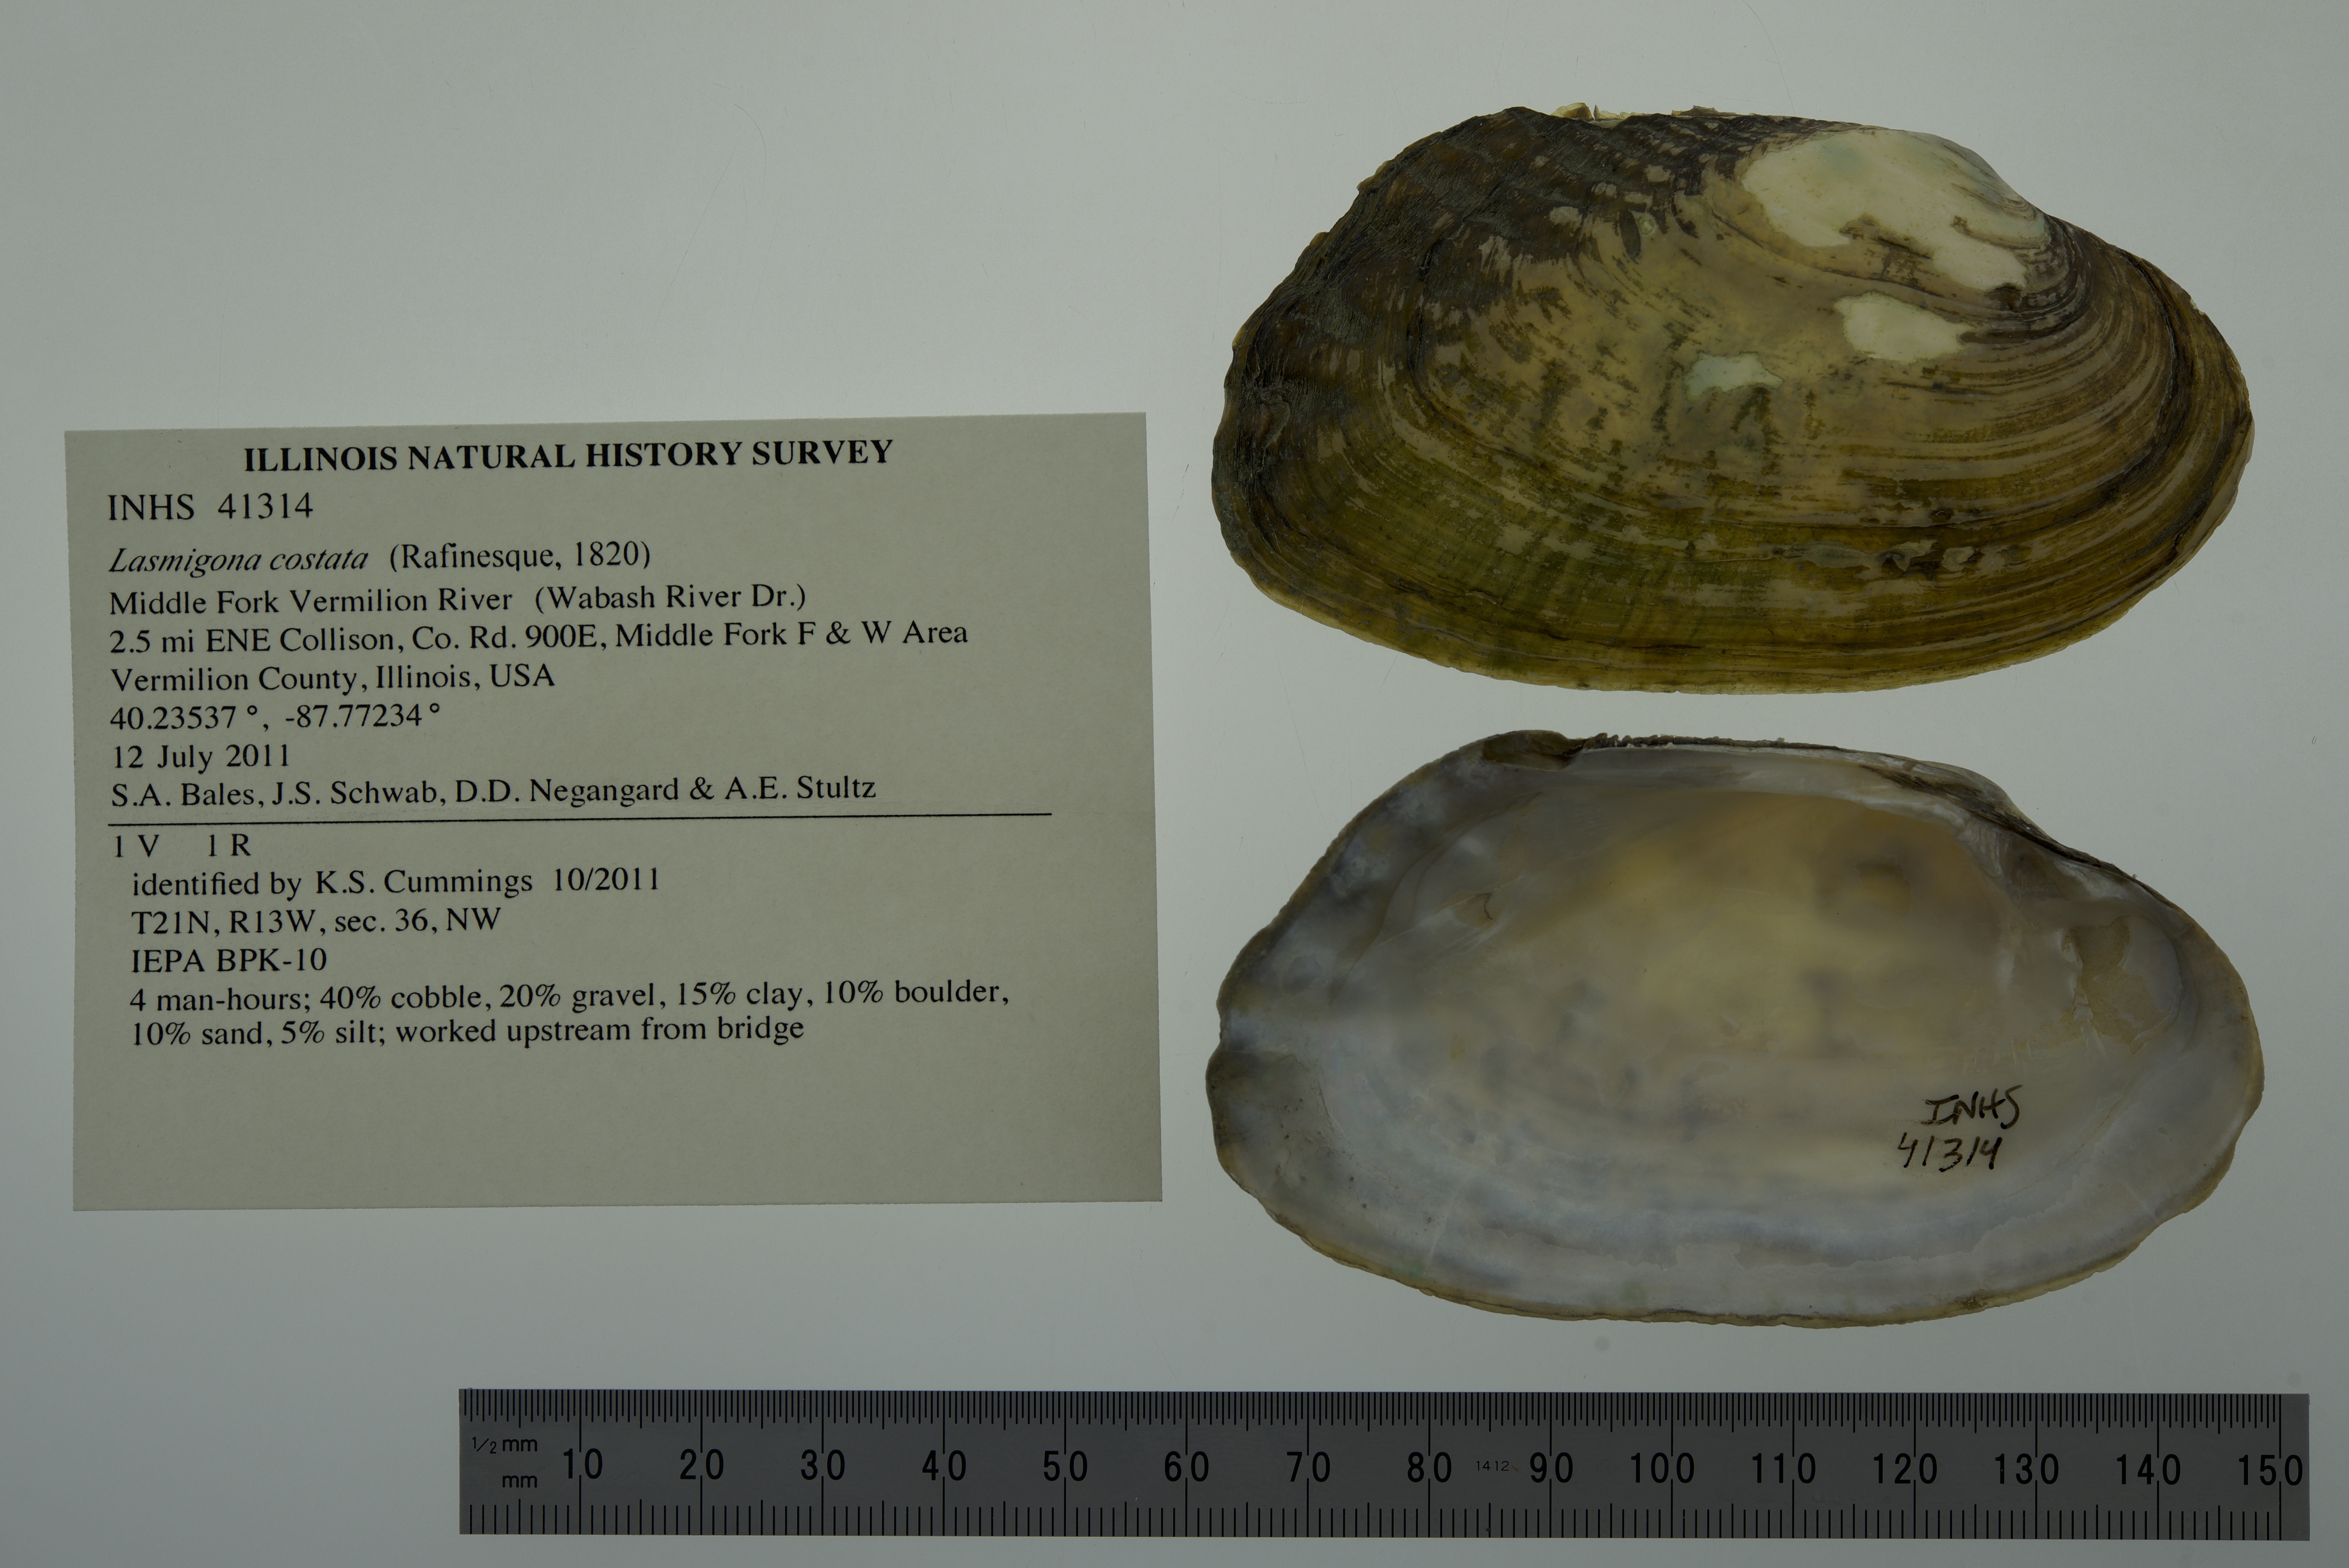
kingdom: Animalia
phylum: Mollusca
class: Bivalvia
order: Unionida
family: Unionidae
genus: Lasmigona
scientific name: Lasmigona costata
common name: Flutedshell
